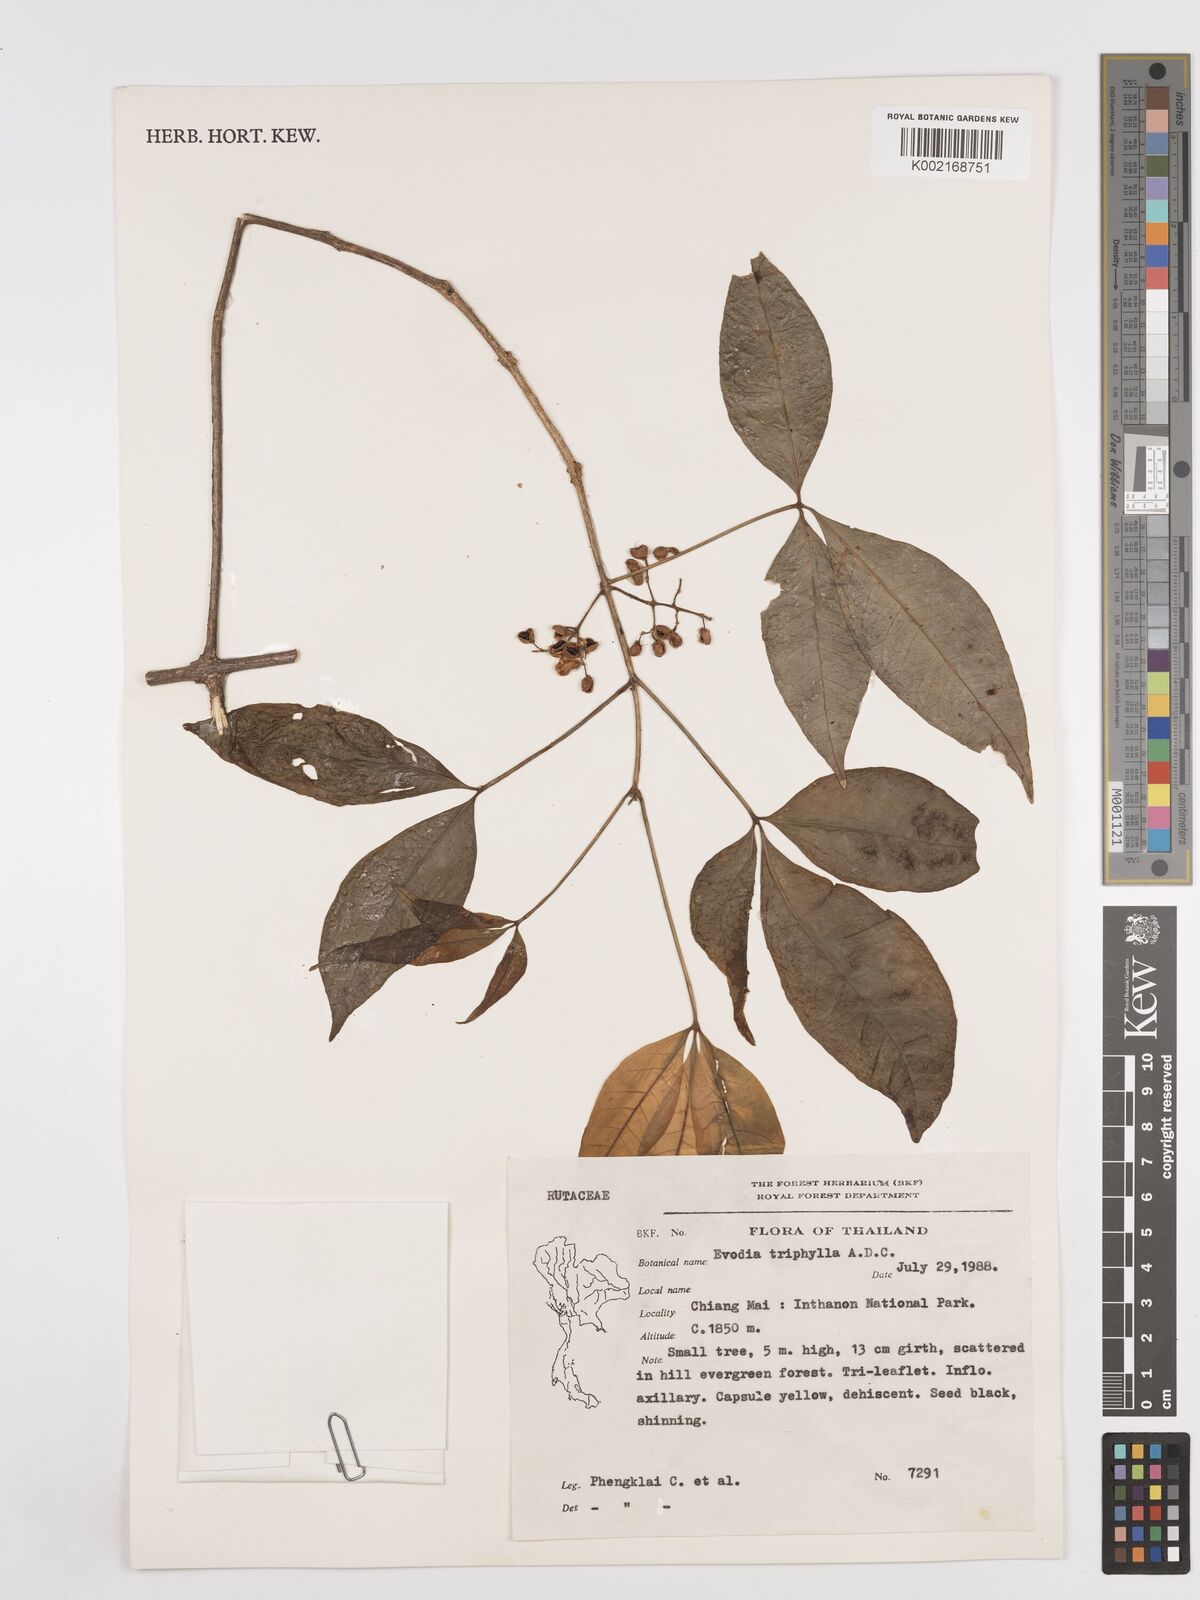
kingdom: Plantae
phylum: Tracheophyta
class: Magnoliopsida
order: Sapindales
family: Rutaceae
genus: Euodia
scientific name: Euodia
